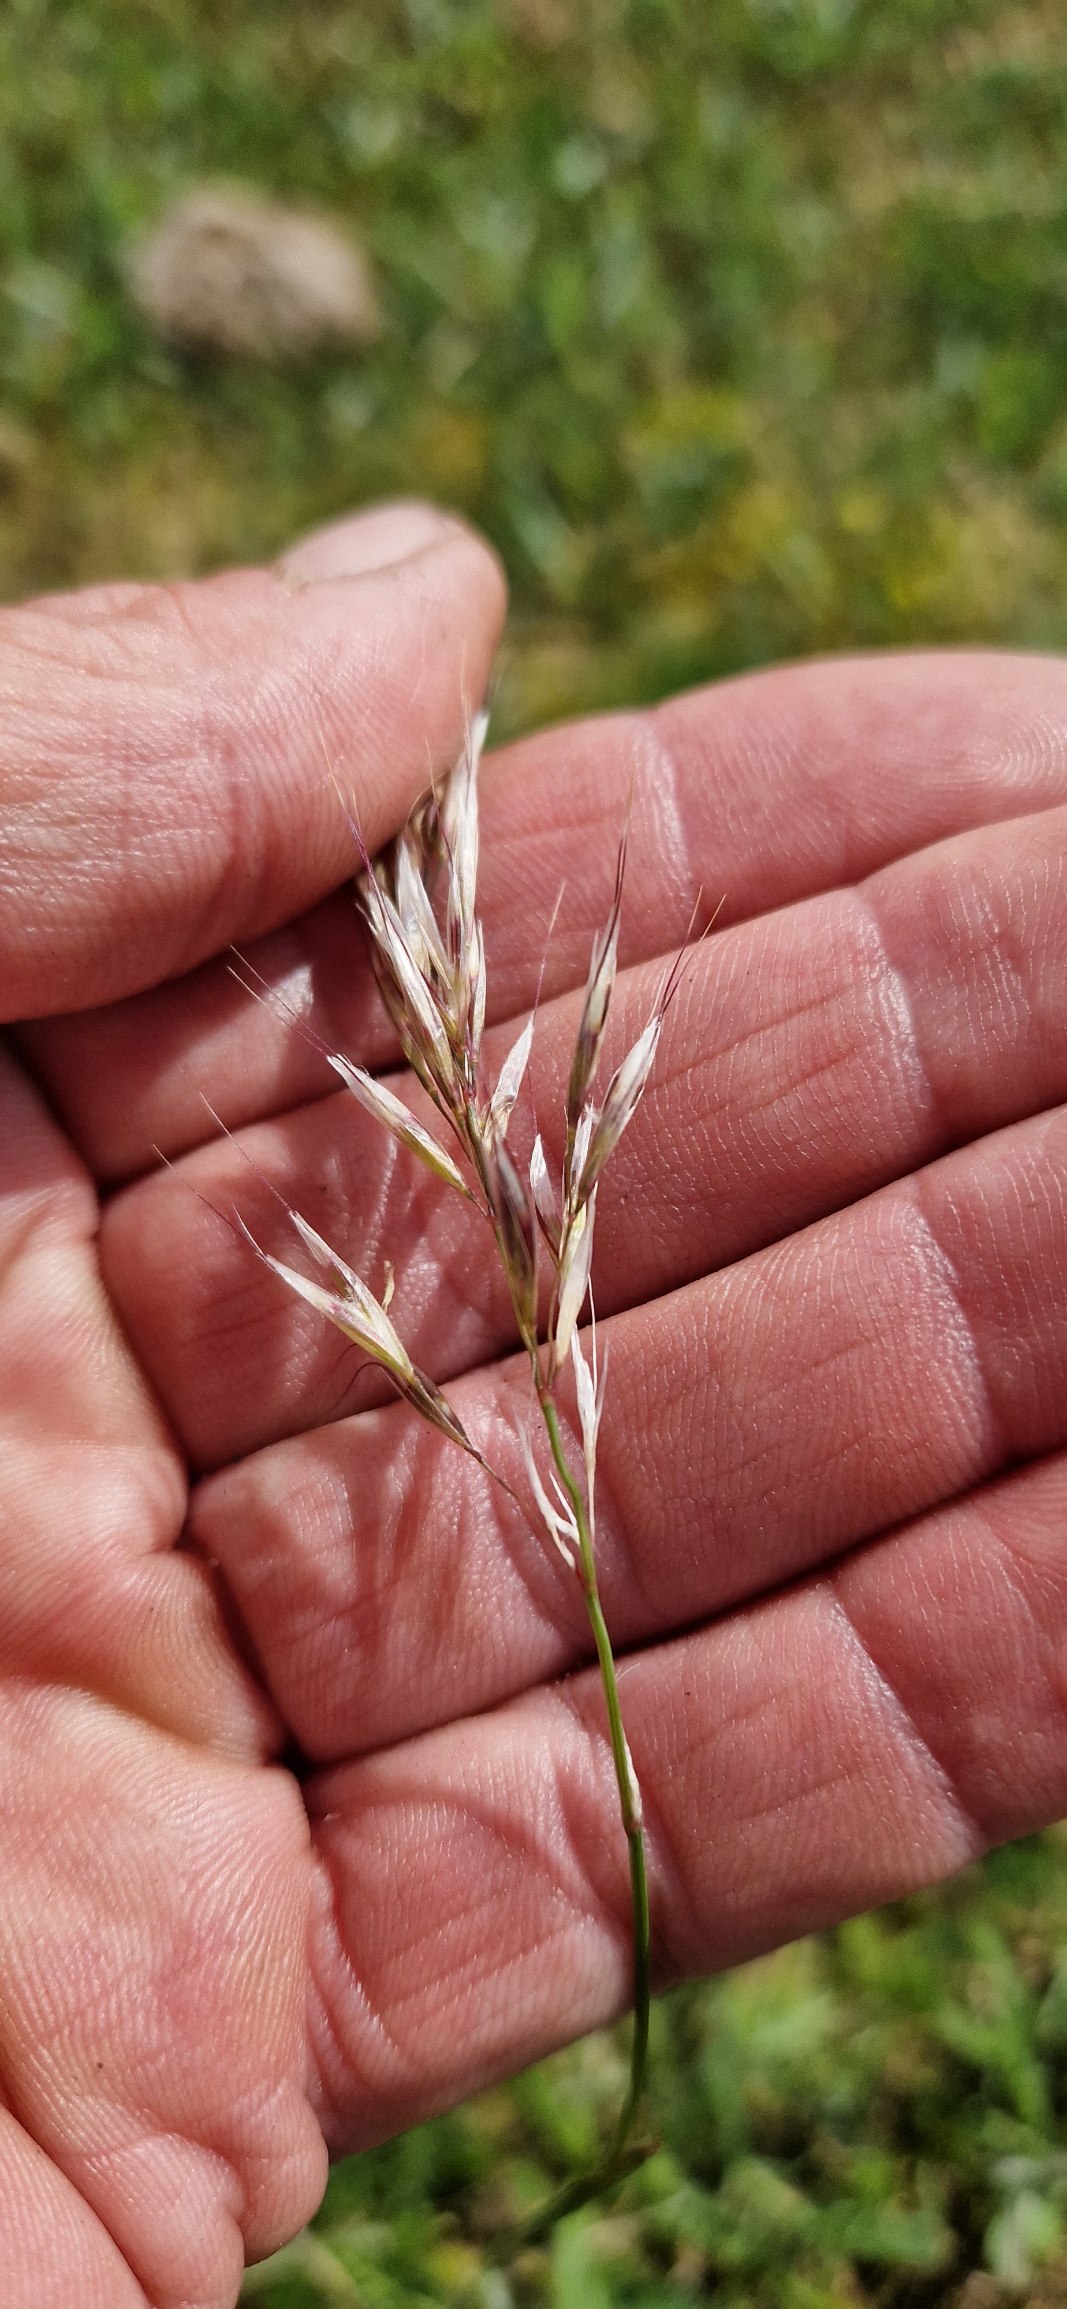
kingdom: Plantae
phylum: Tracheophyta
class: Liliopsida
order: Poales
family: Poaceae
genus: Avenula
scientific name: Avenula pubescens
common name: Dunet havre
